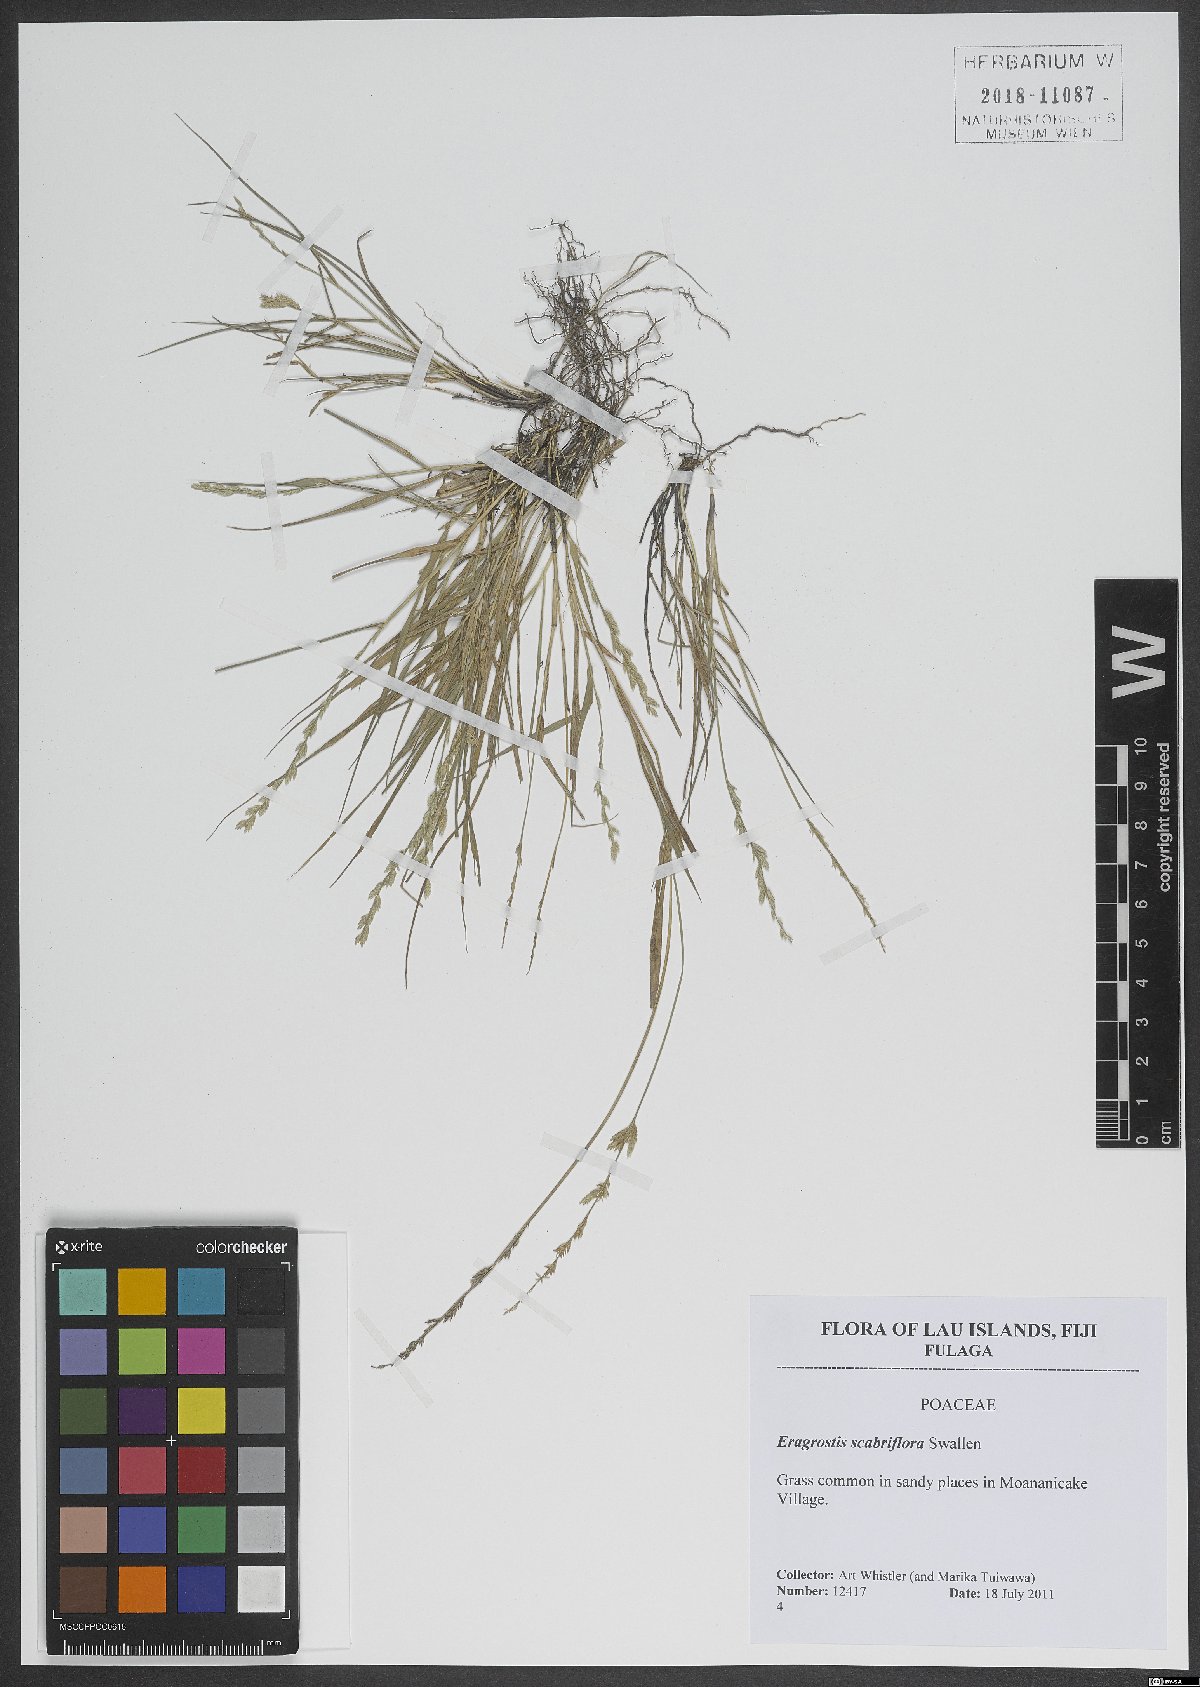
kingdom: Plantae
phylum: Tracheophyta
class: Liliopsida
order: Poales
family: Poaceae
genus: Eragrostis
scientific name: Eragrostis scabriflora
